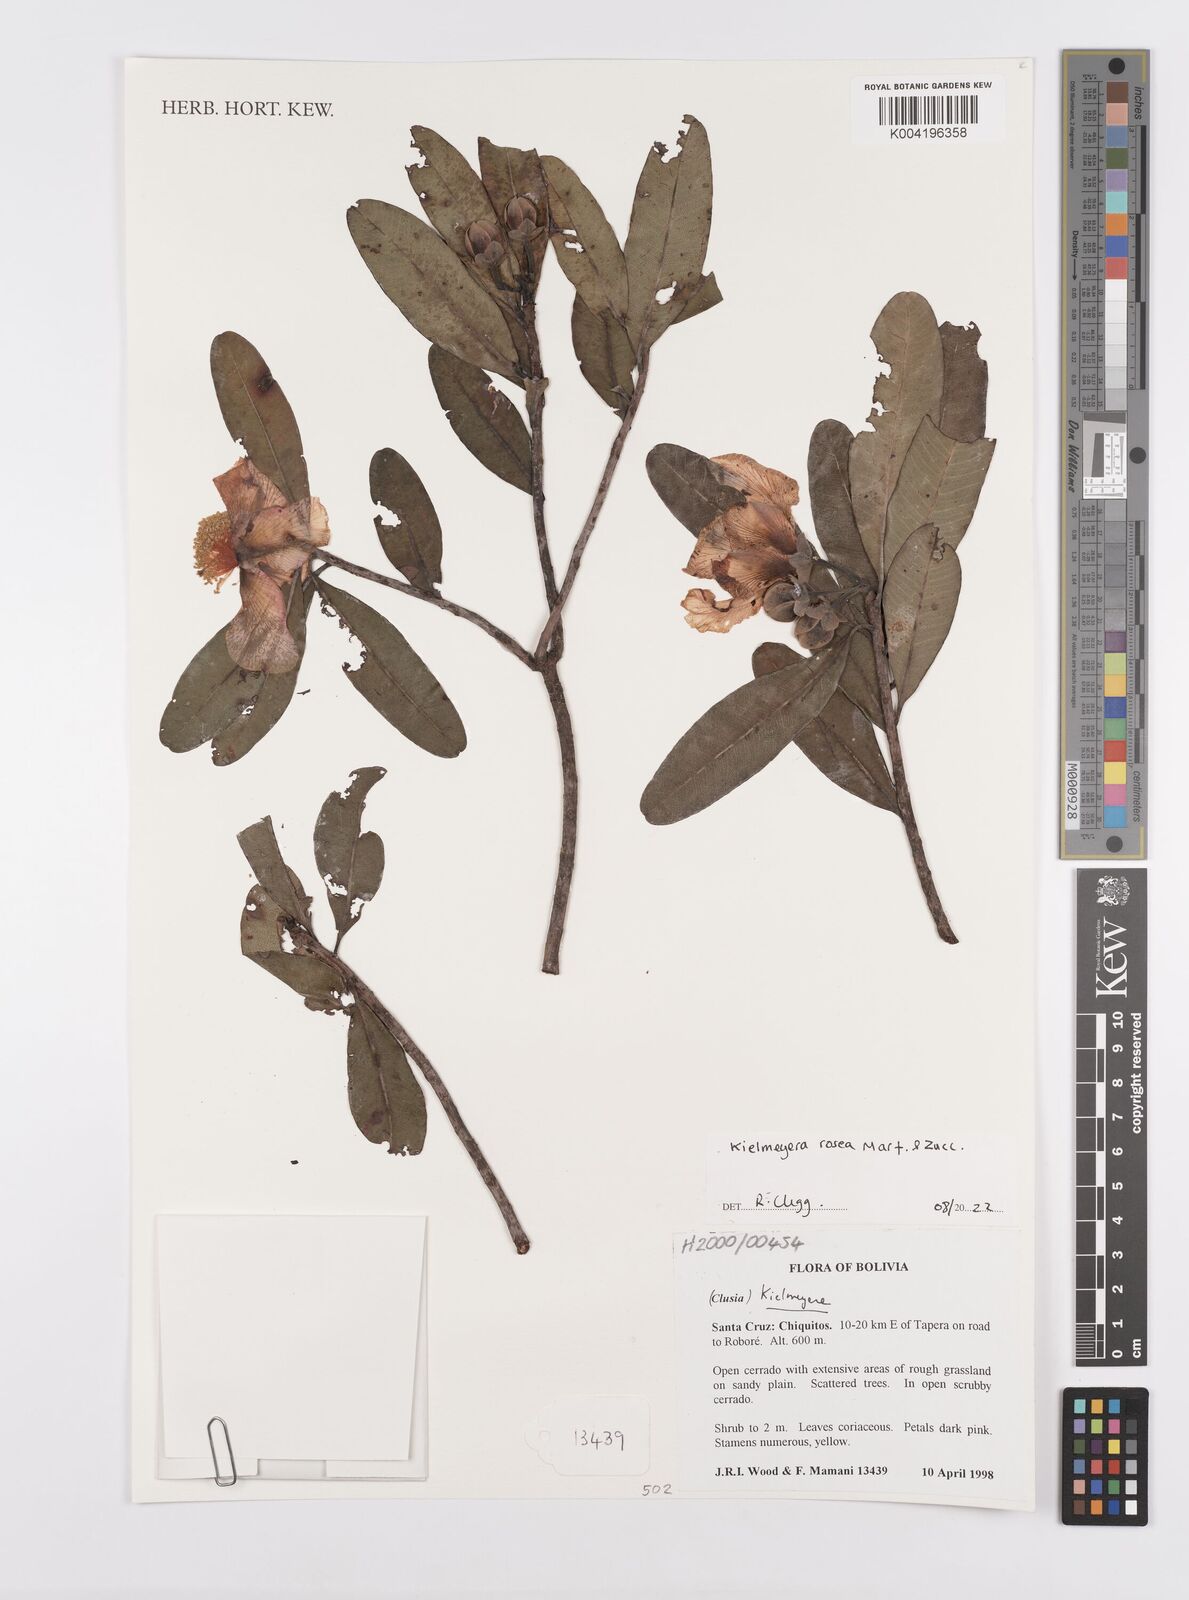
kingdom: Plantae
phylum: Tracheophyta
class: Magnoliopsida
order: Malpighiales
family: Calophyllaceae
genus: Kielmeyera
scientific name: Kielmeyera rosea
